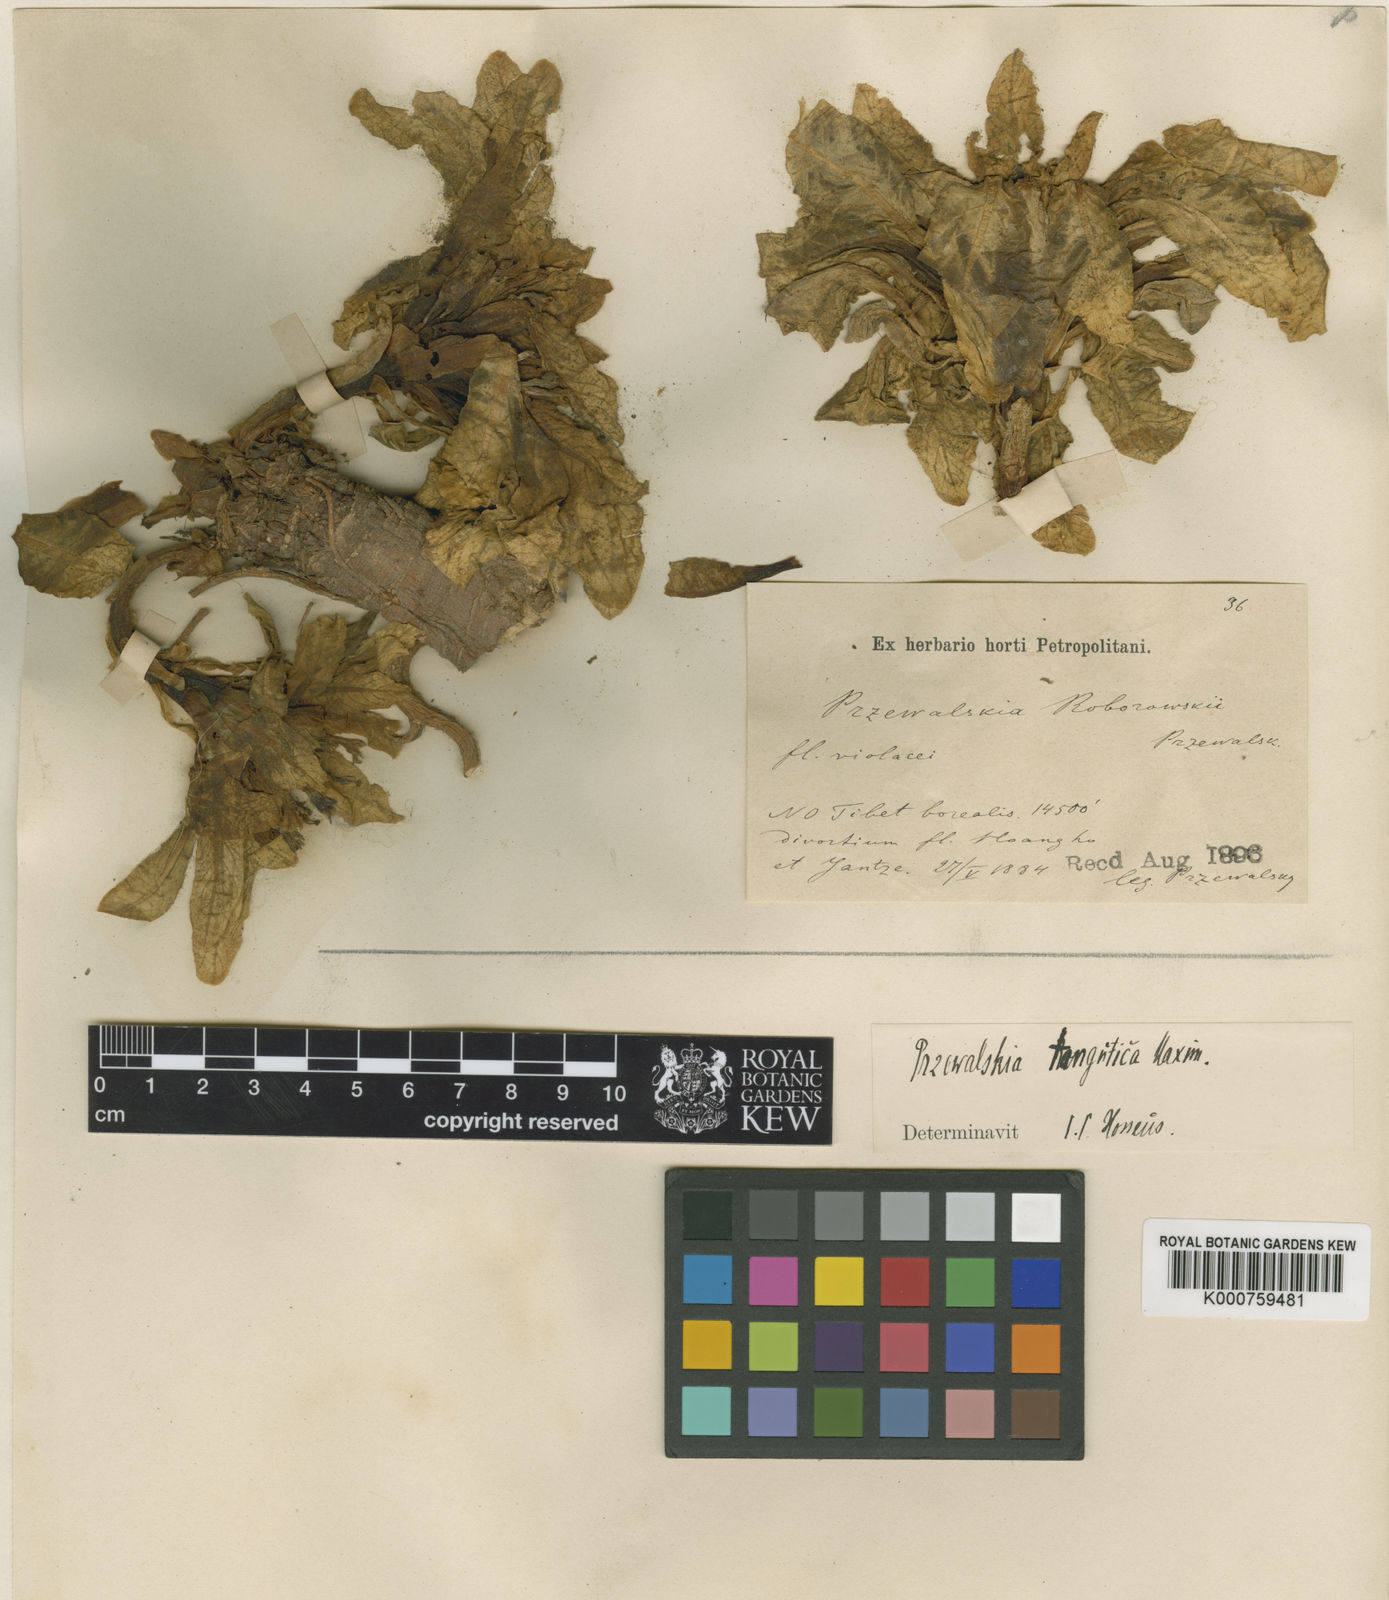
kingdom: Plantae
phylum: Tracheophyta
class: Magnoliopsida
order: Solanales
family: Solanaceae
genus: Przewalskia
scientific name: Przewalskia tangutica
